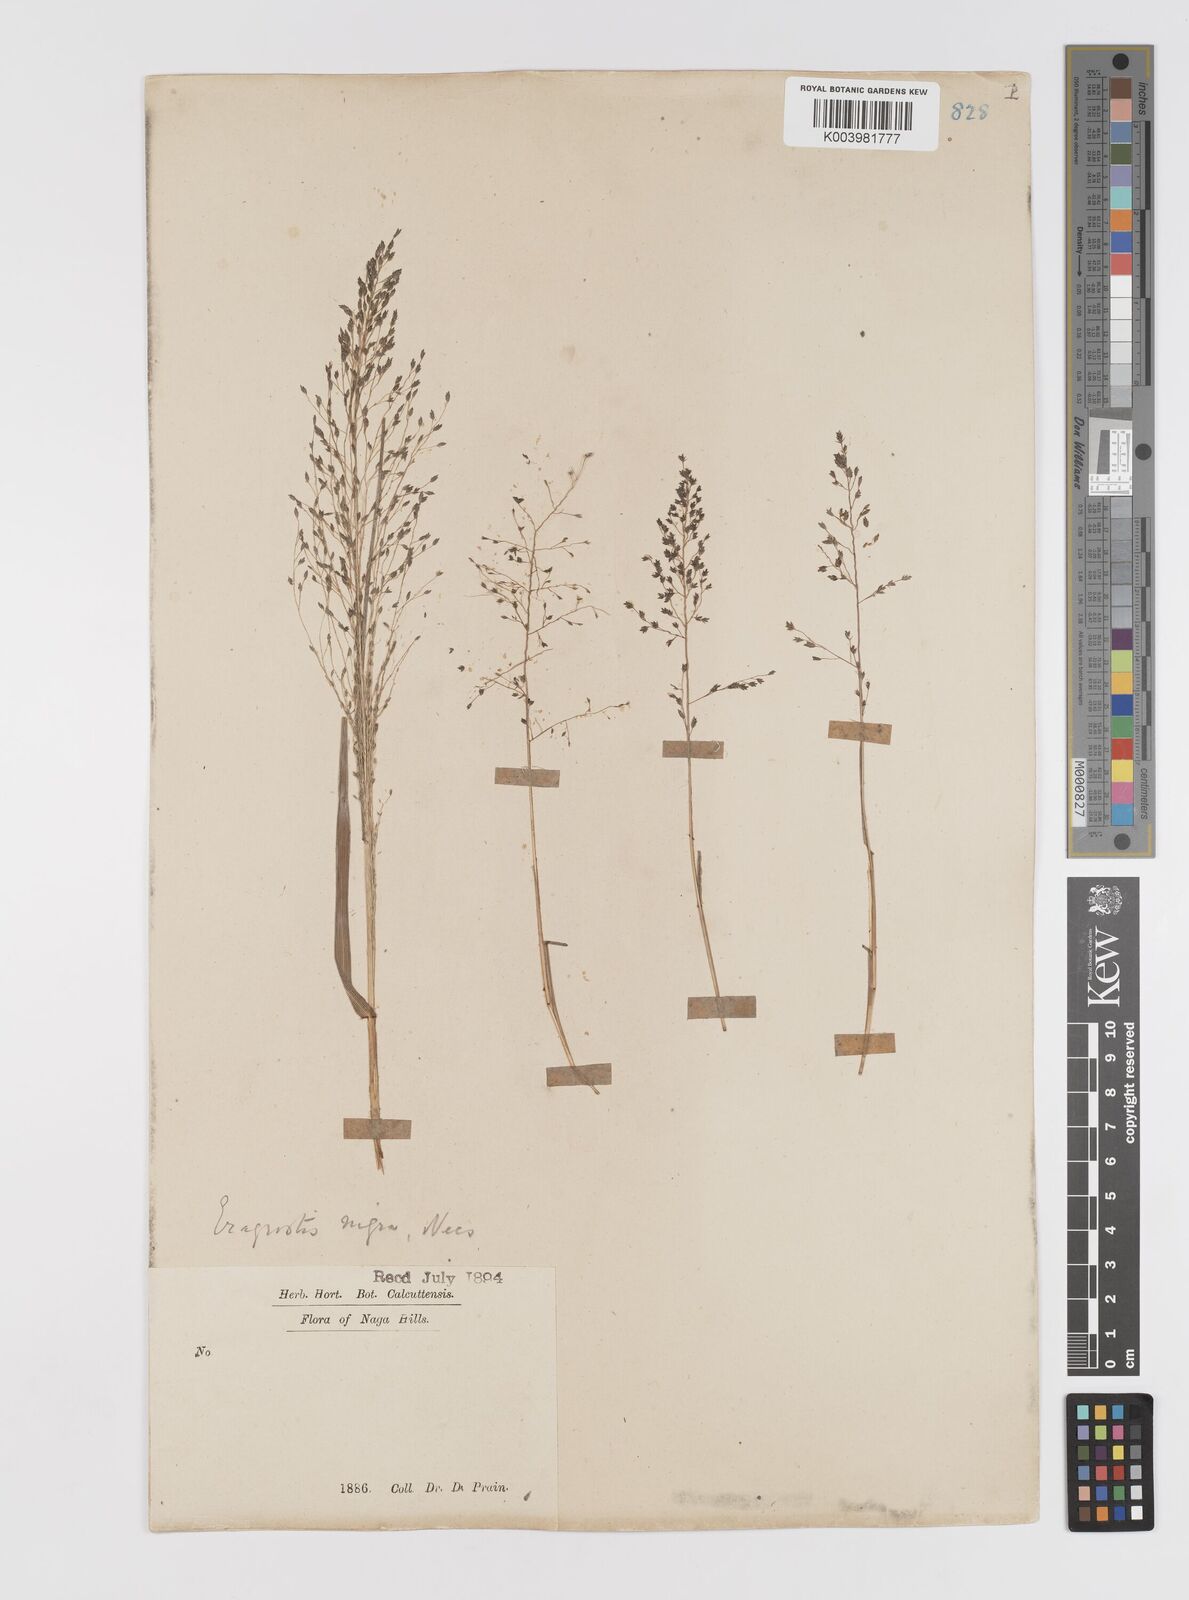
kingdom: Plantae
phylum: Tracheophyta
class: Liliopsida
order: Poales
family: Poaceae
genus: Eragrostis
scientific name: Eragrostis nigra
